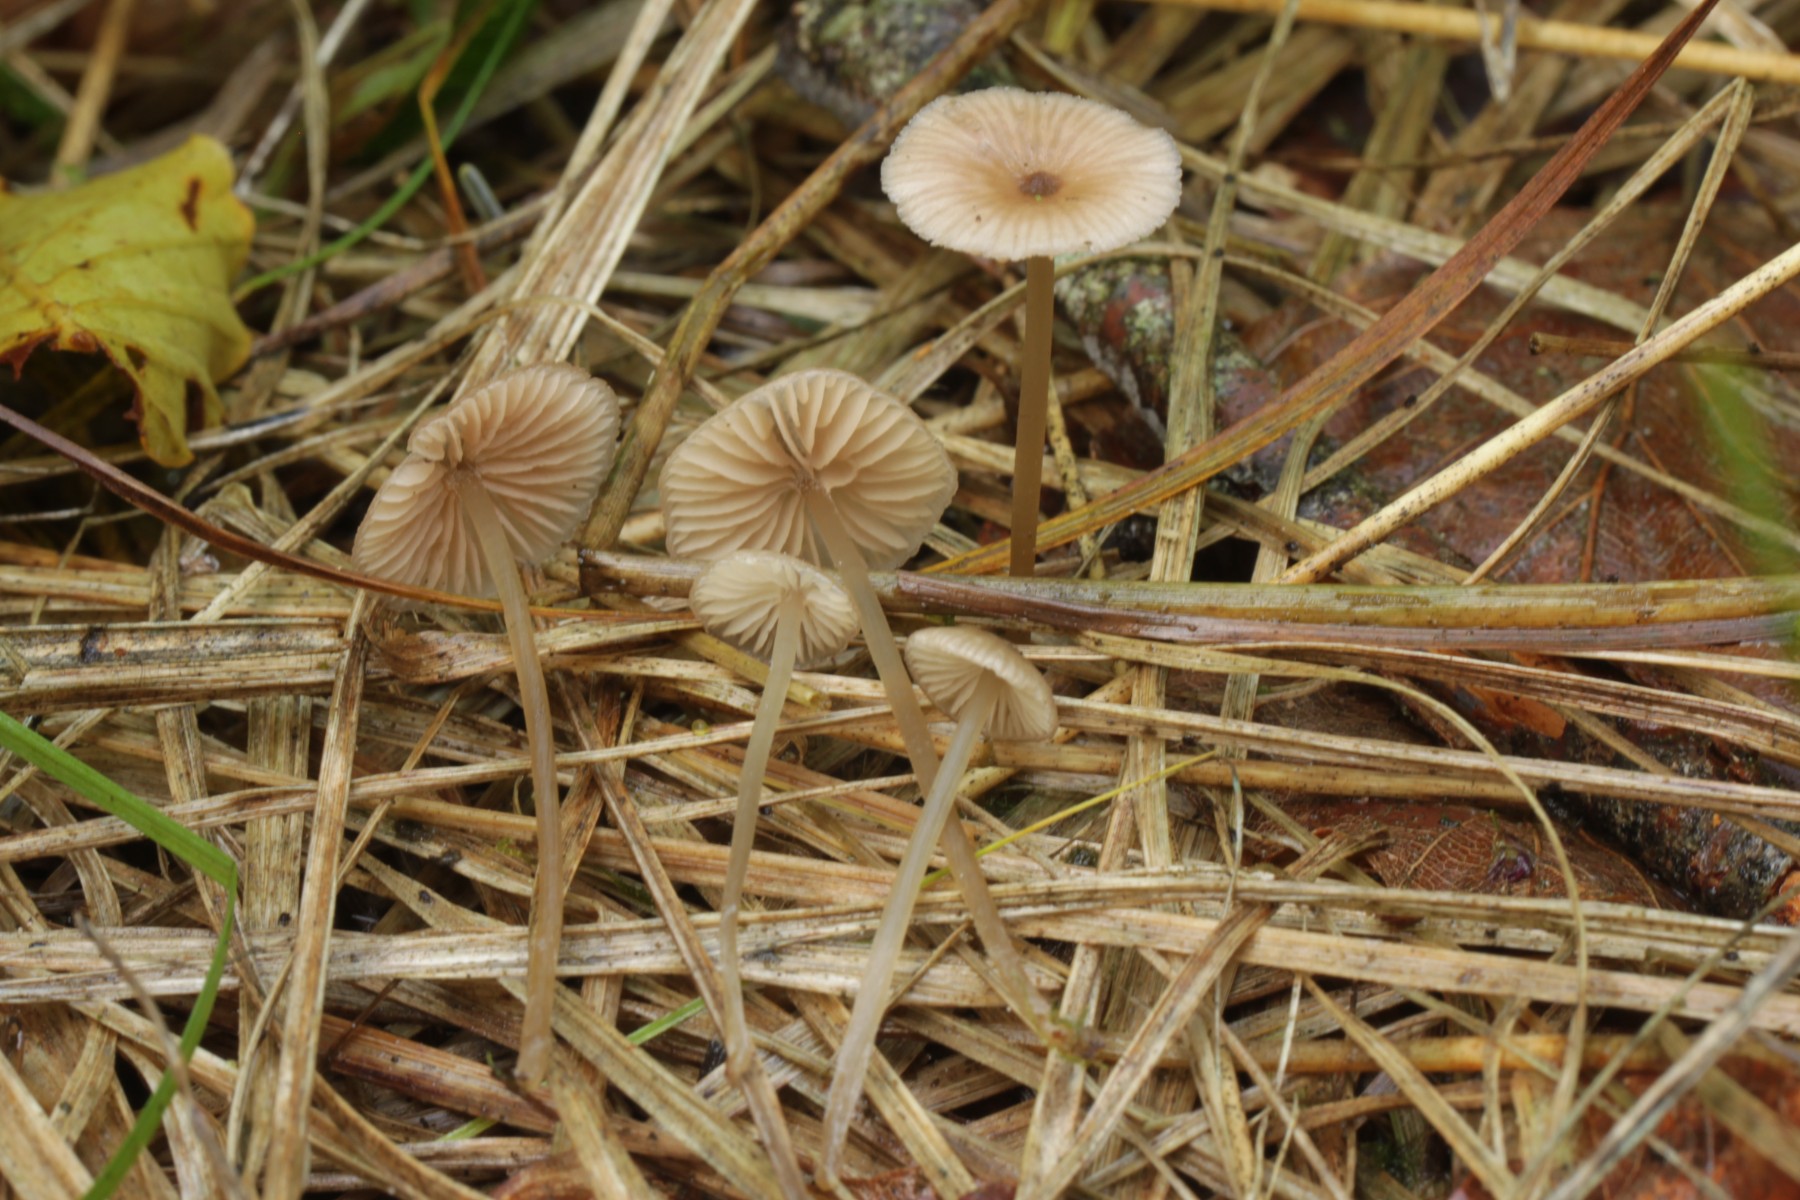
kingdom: Fungi
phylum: Basidiomycota
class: Agaricomycetes
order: Agaricales
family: Entolomataceae
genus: Entoloma
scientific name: Entoloma
